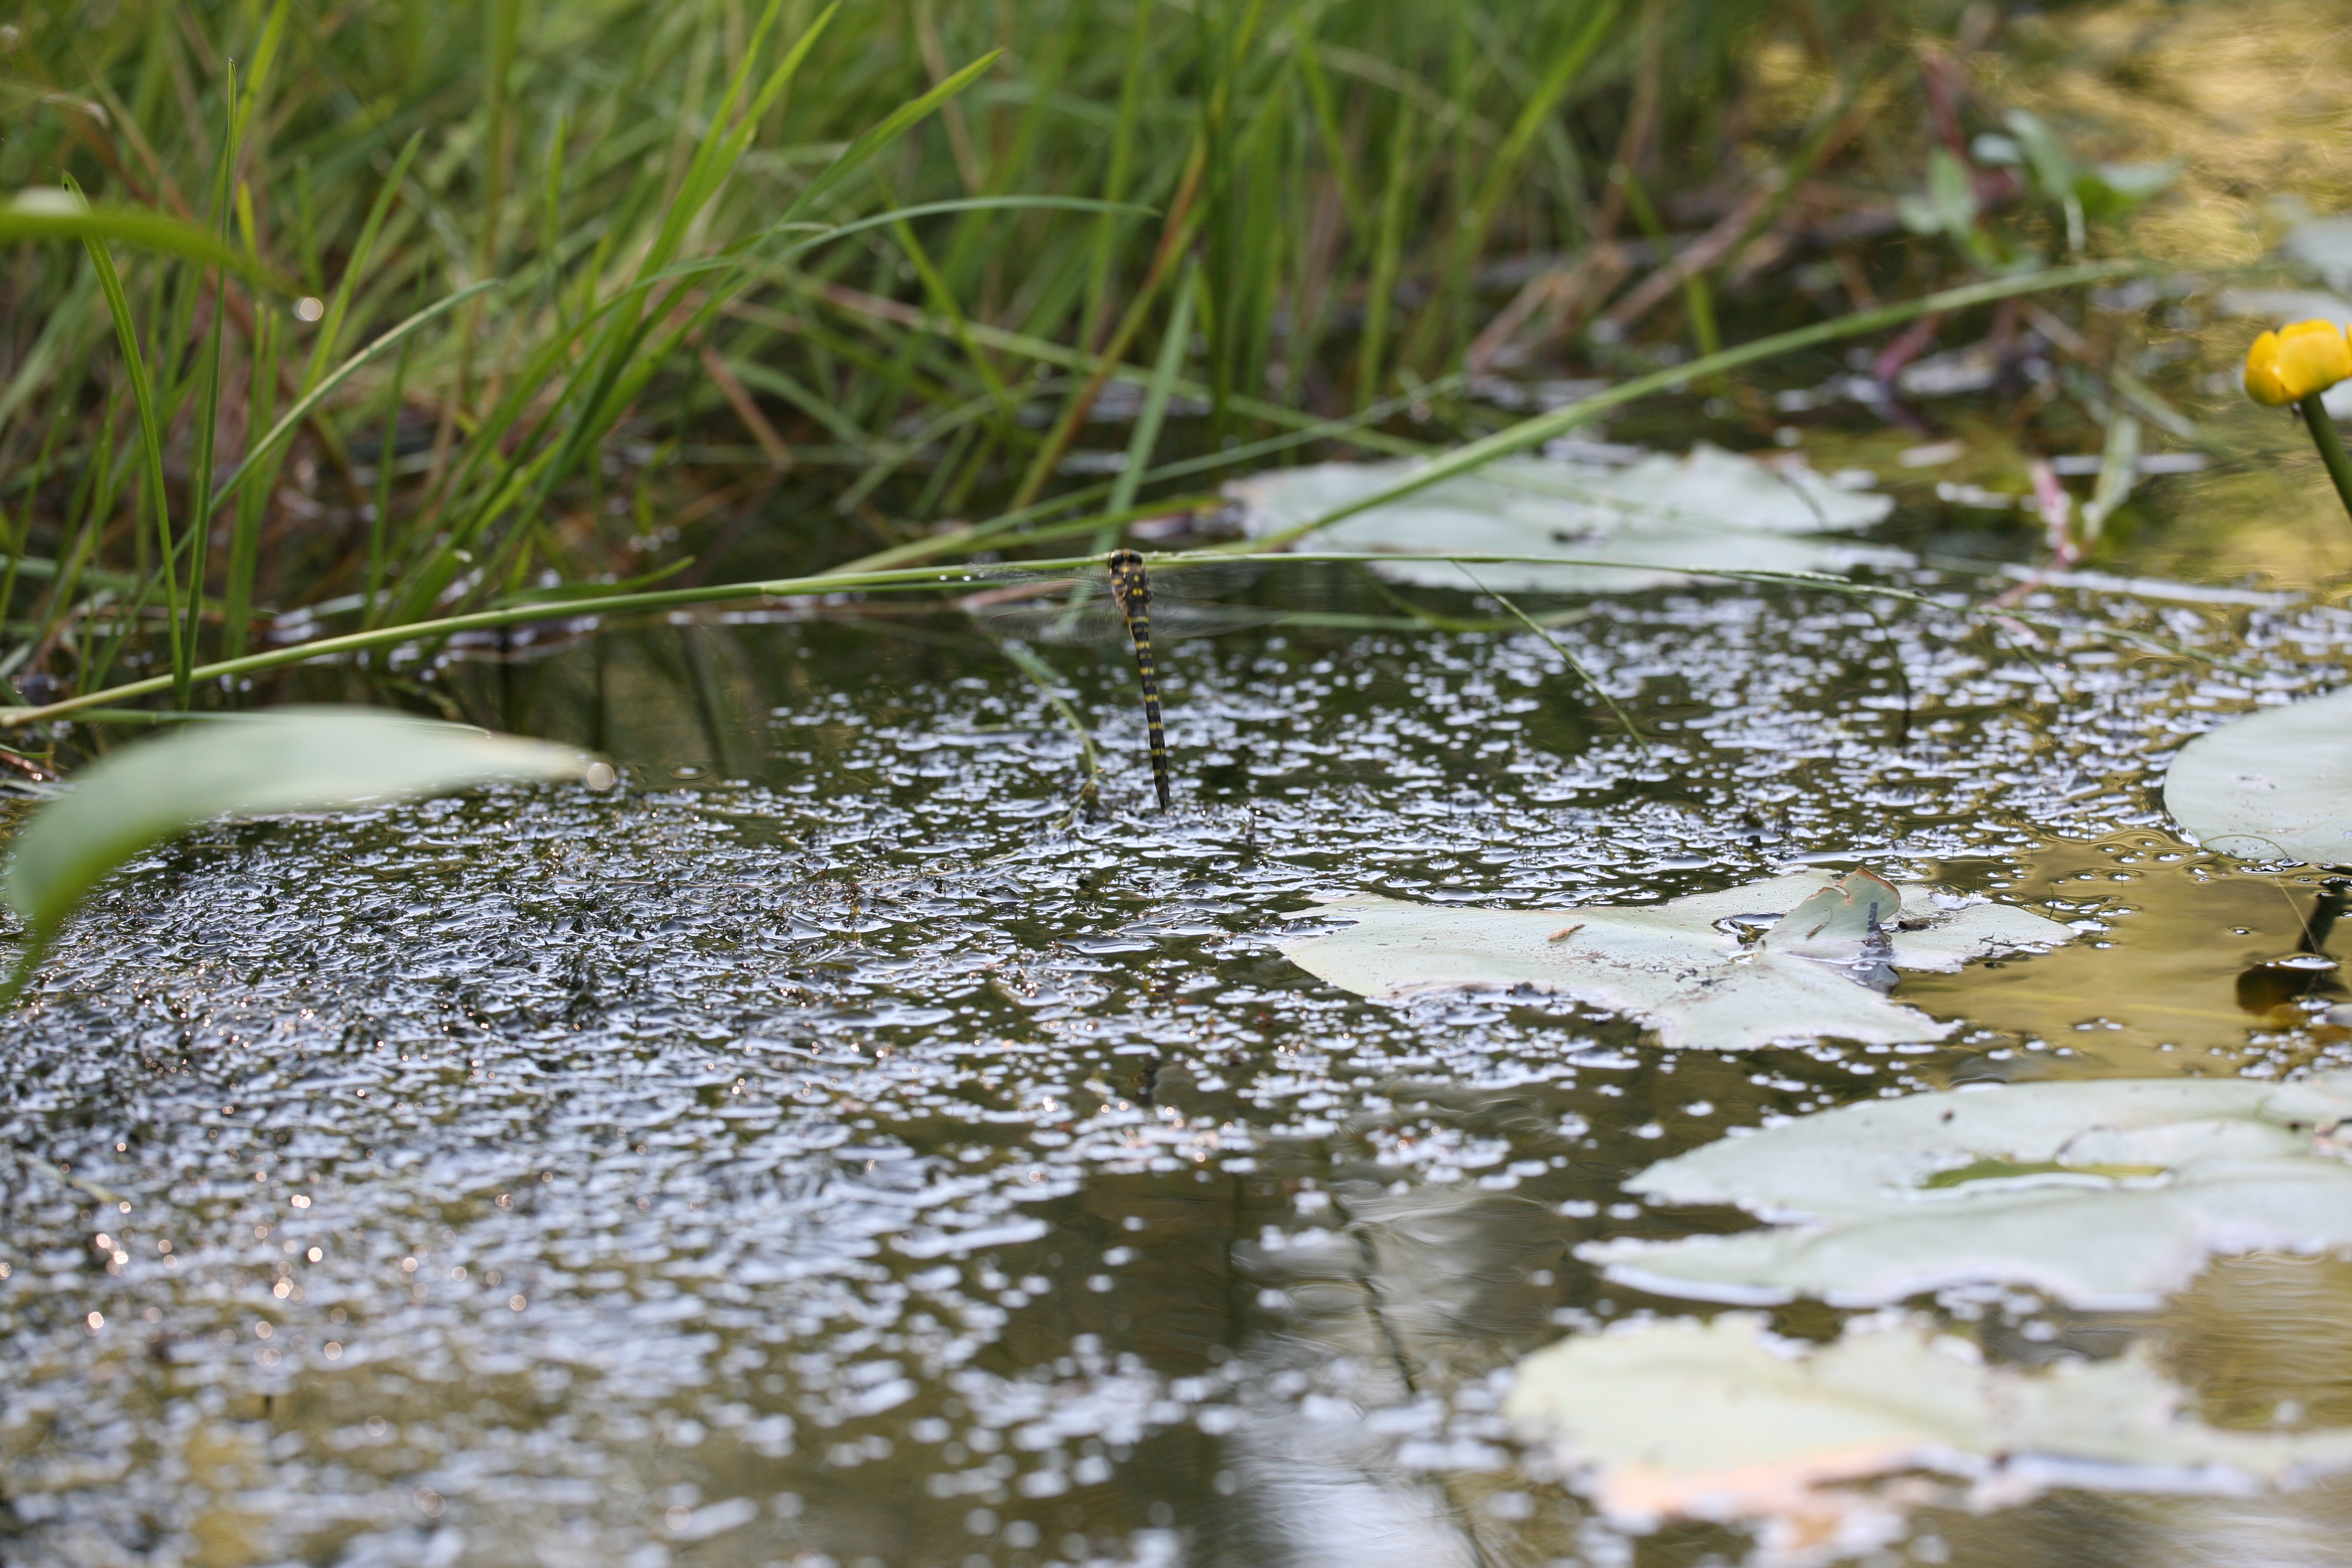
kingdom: Animalia
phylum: Arthropoda
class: Insecta
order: Odonata
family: Cordulegastridae
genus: Cordulegaster
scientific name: Cordulegaster boltonii
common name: Golden-ringed dragonfly
